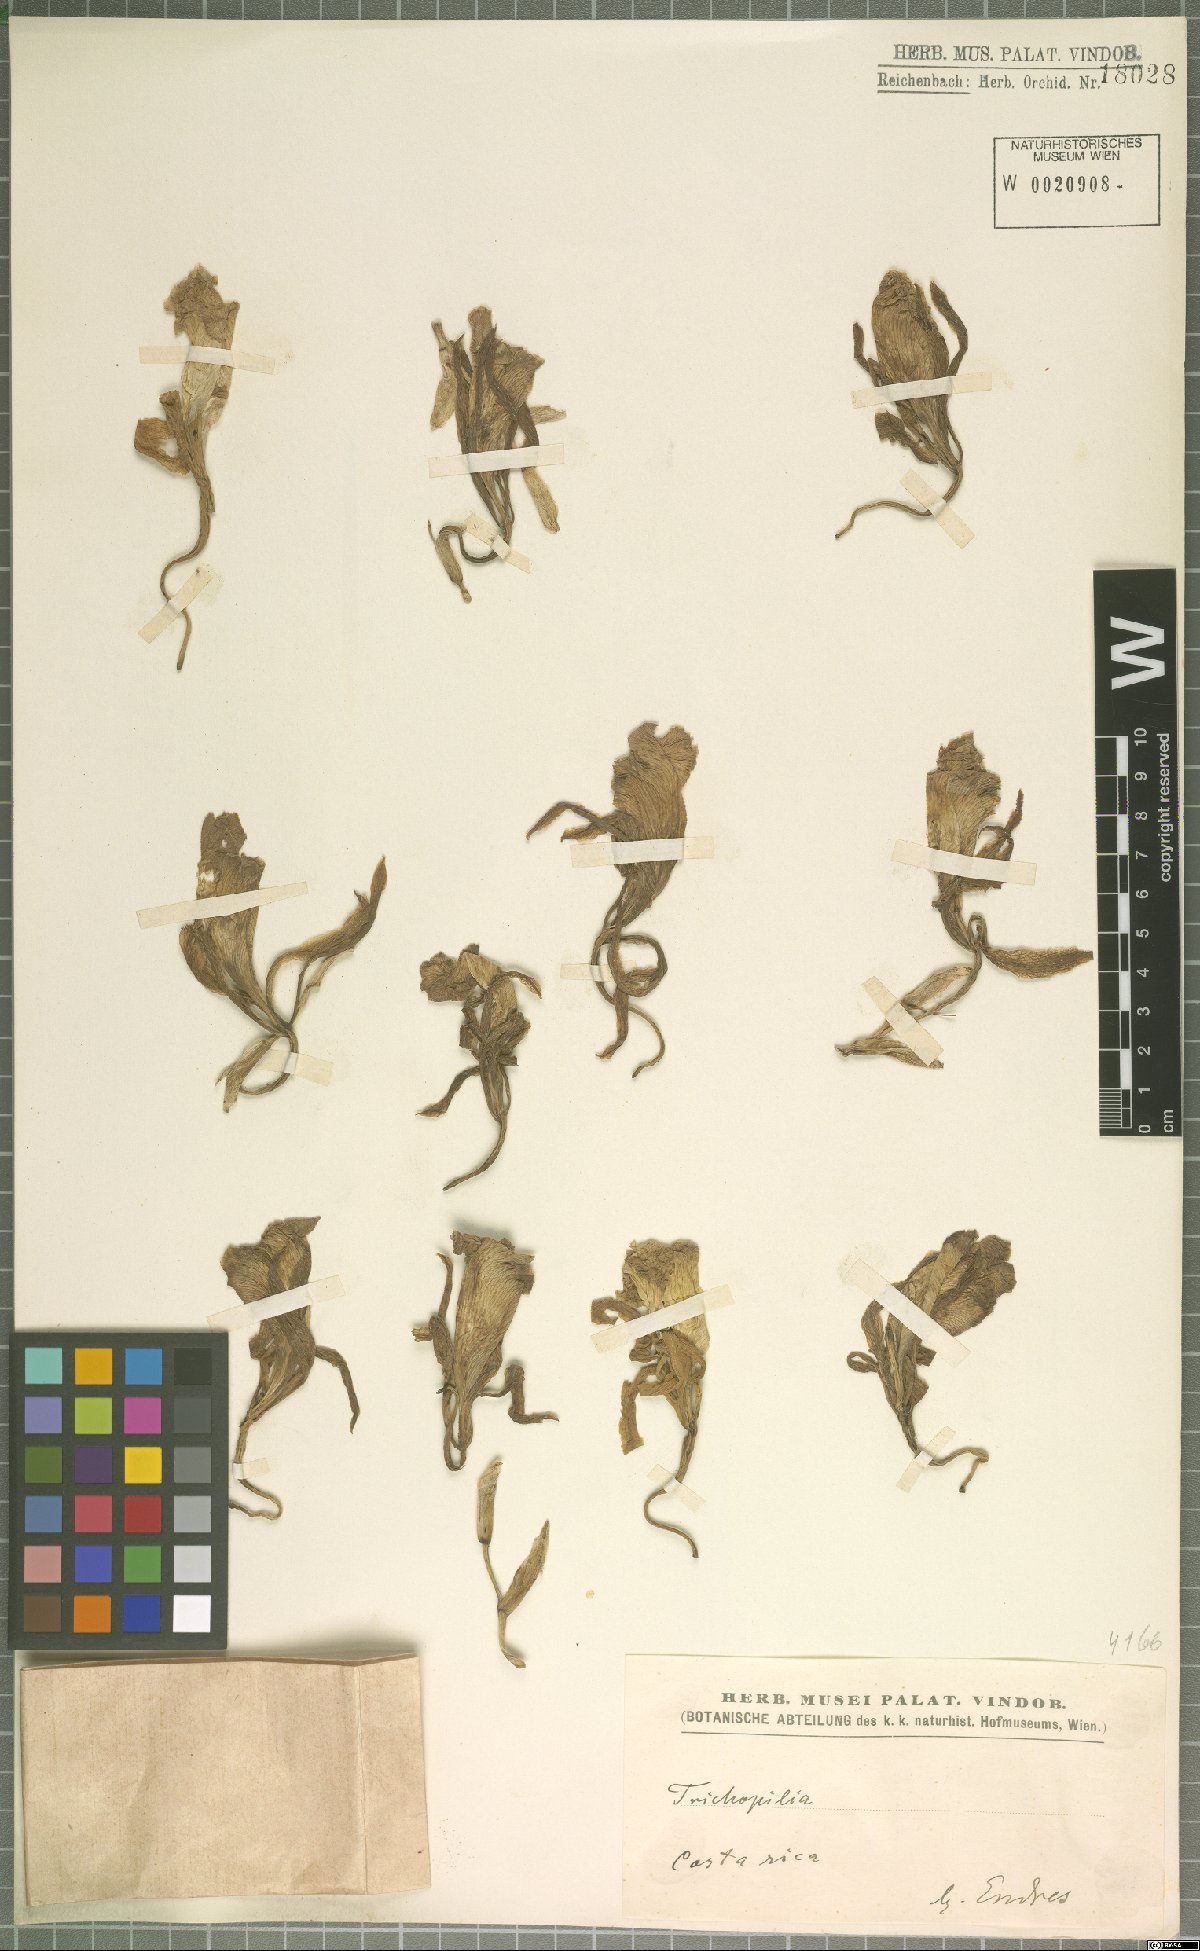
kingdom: Plantae
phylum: Tracheophyta
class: Liliopsida
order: Asparagales
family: Orchidaceae
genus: Trichopilia
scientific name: Trichopilia
